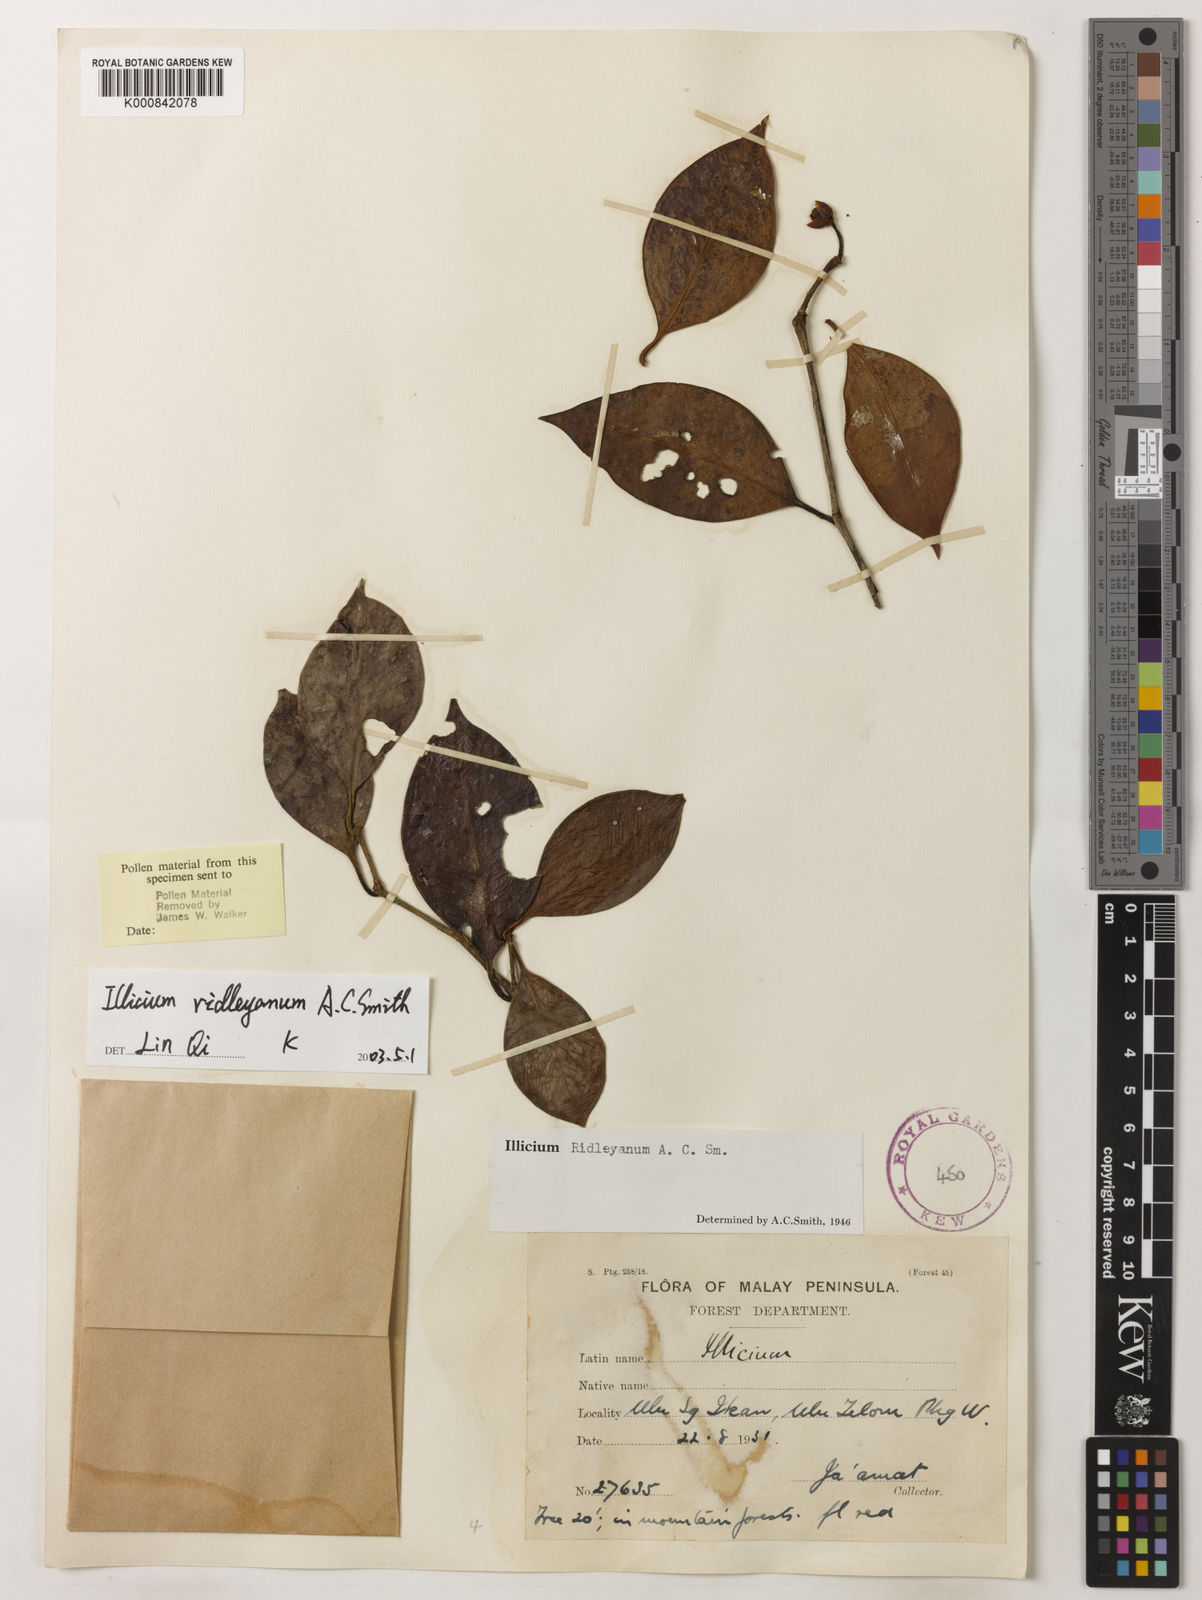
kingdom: Plantae
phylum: Tracheophyta
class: Magnoliopsida
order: Austrobaileyales
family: Schisandraceae
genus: Illicium
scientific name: Illicium ridleyanum
